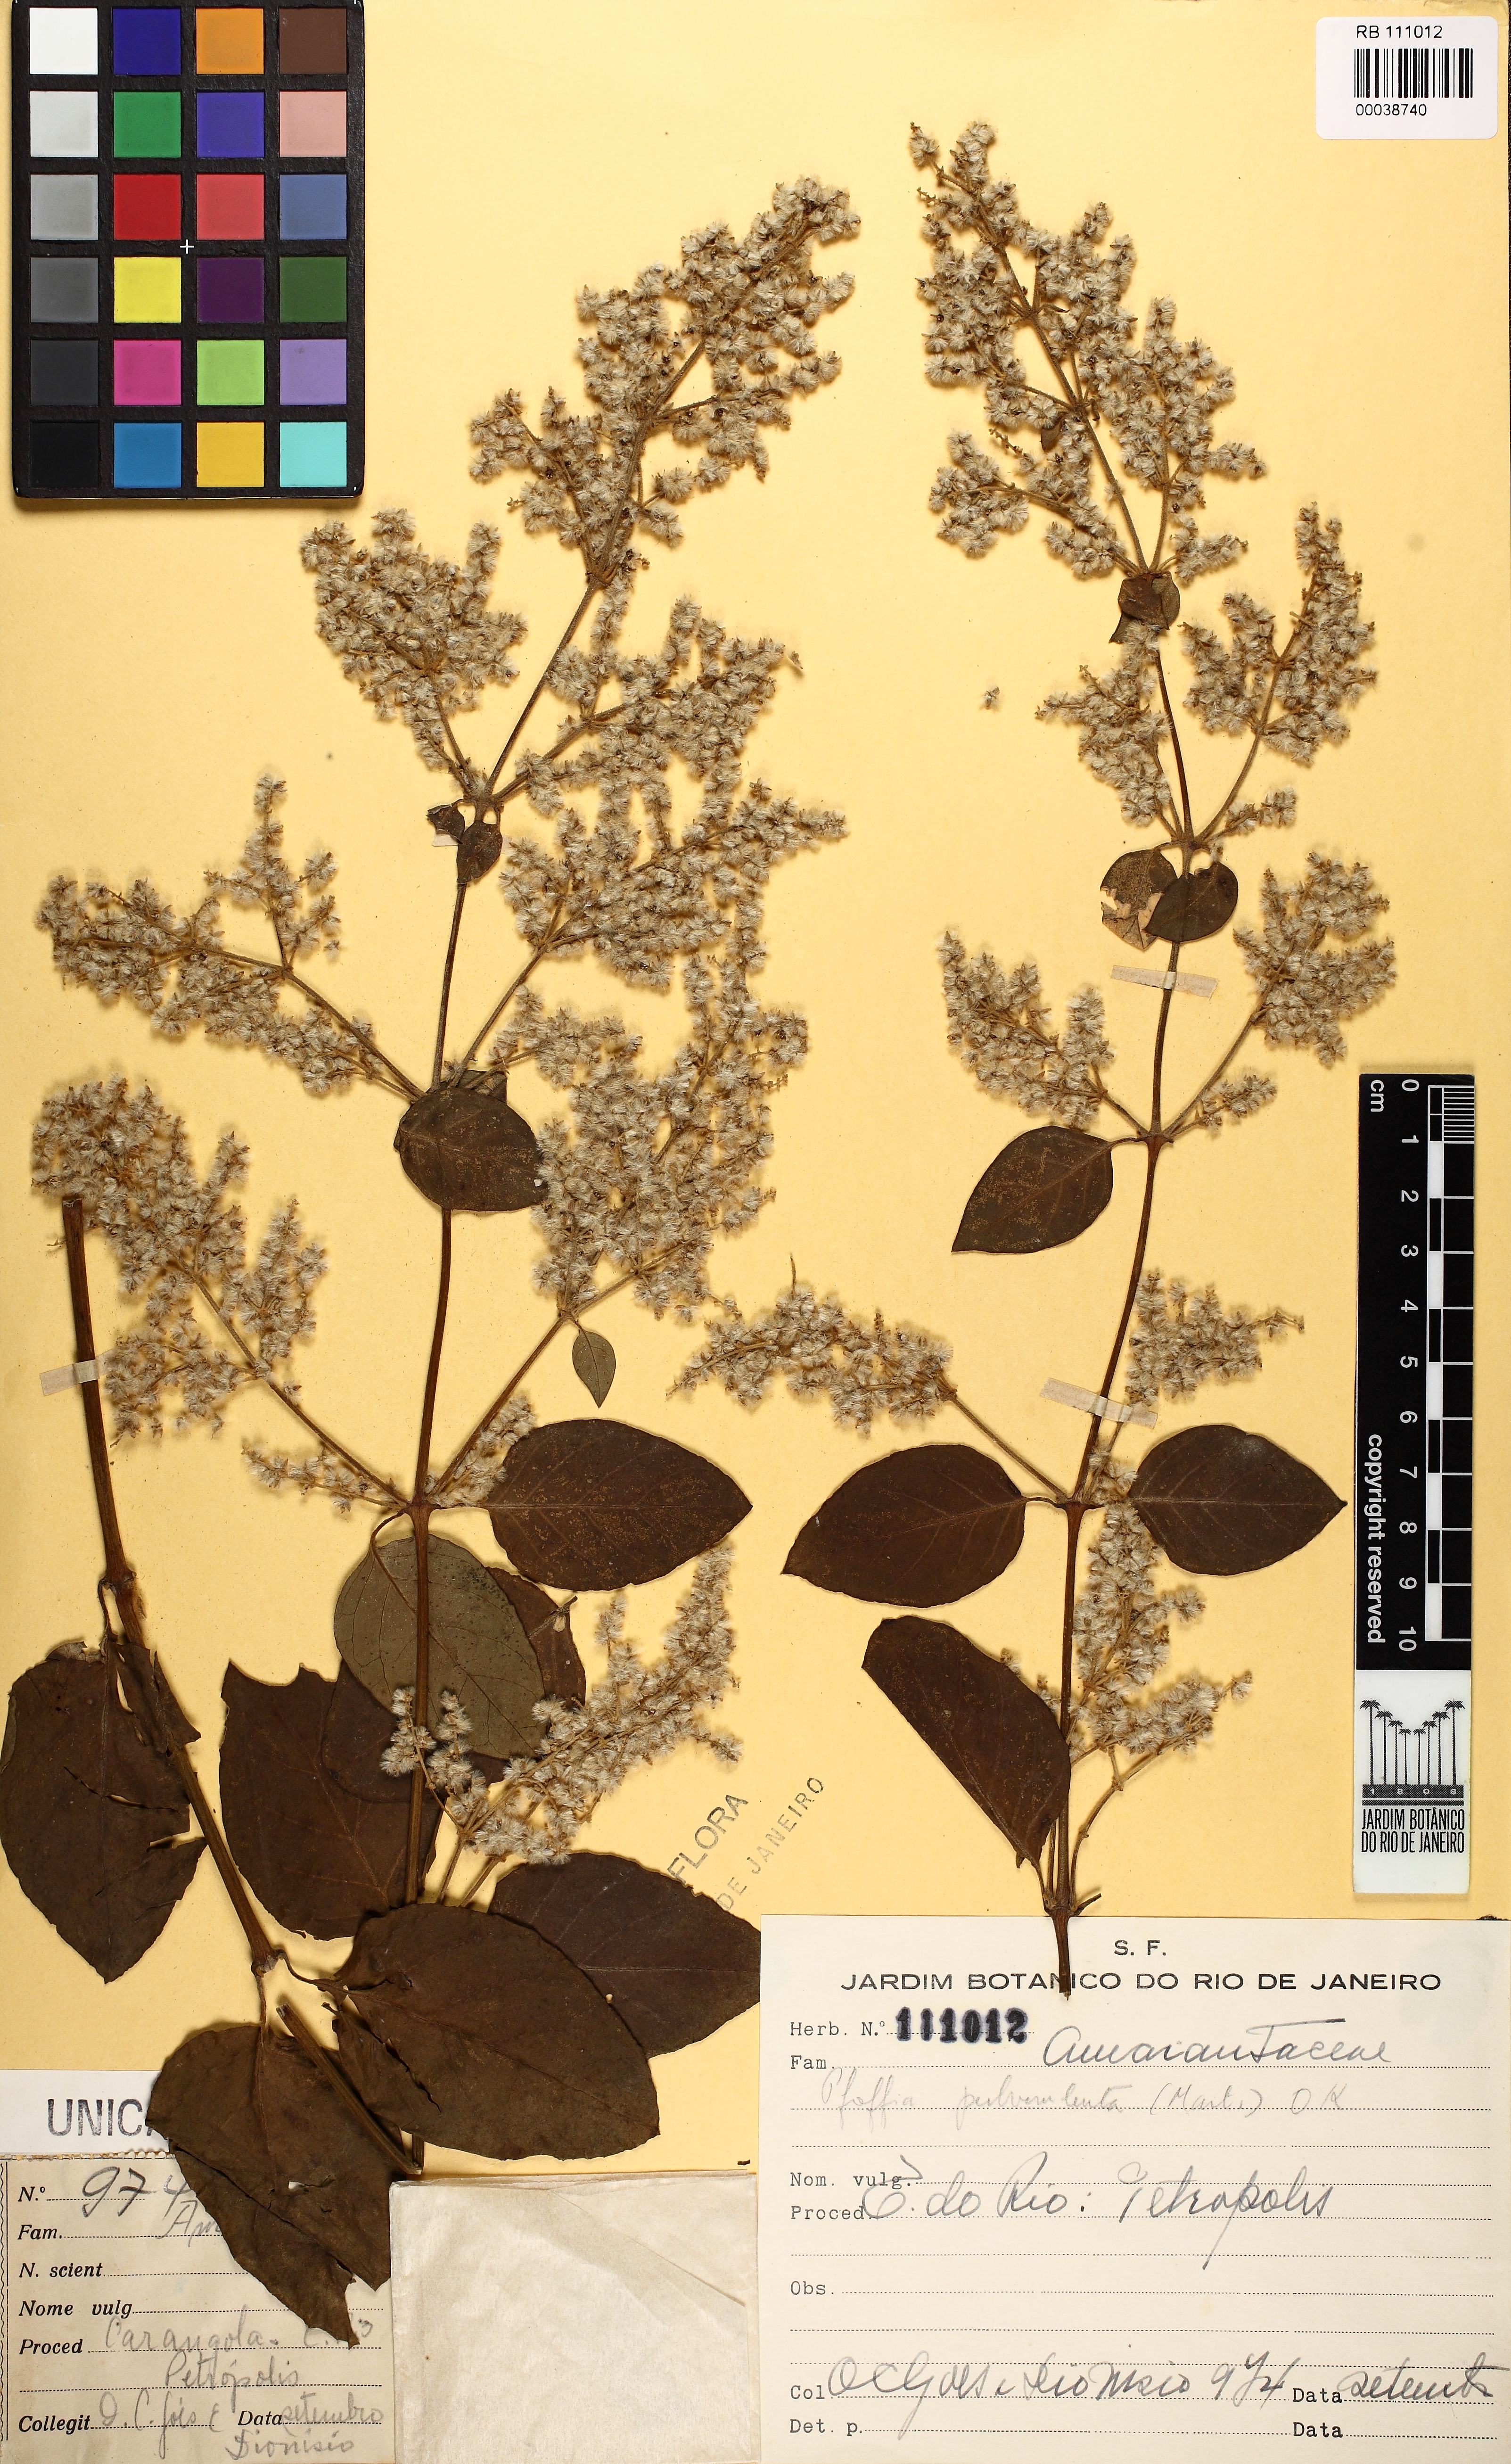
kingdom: Plantae
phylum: Tracheophyta
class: Magnoliopsida
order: Caryophyllales
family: Amaranthaceae
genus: Hebanthe
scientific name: Hebanthe pulverulenta
